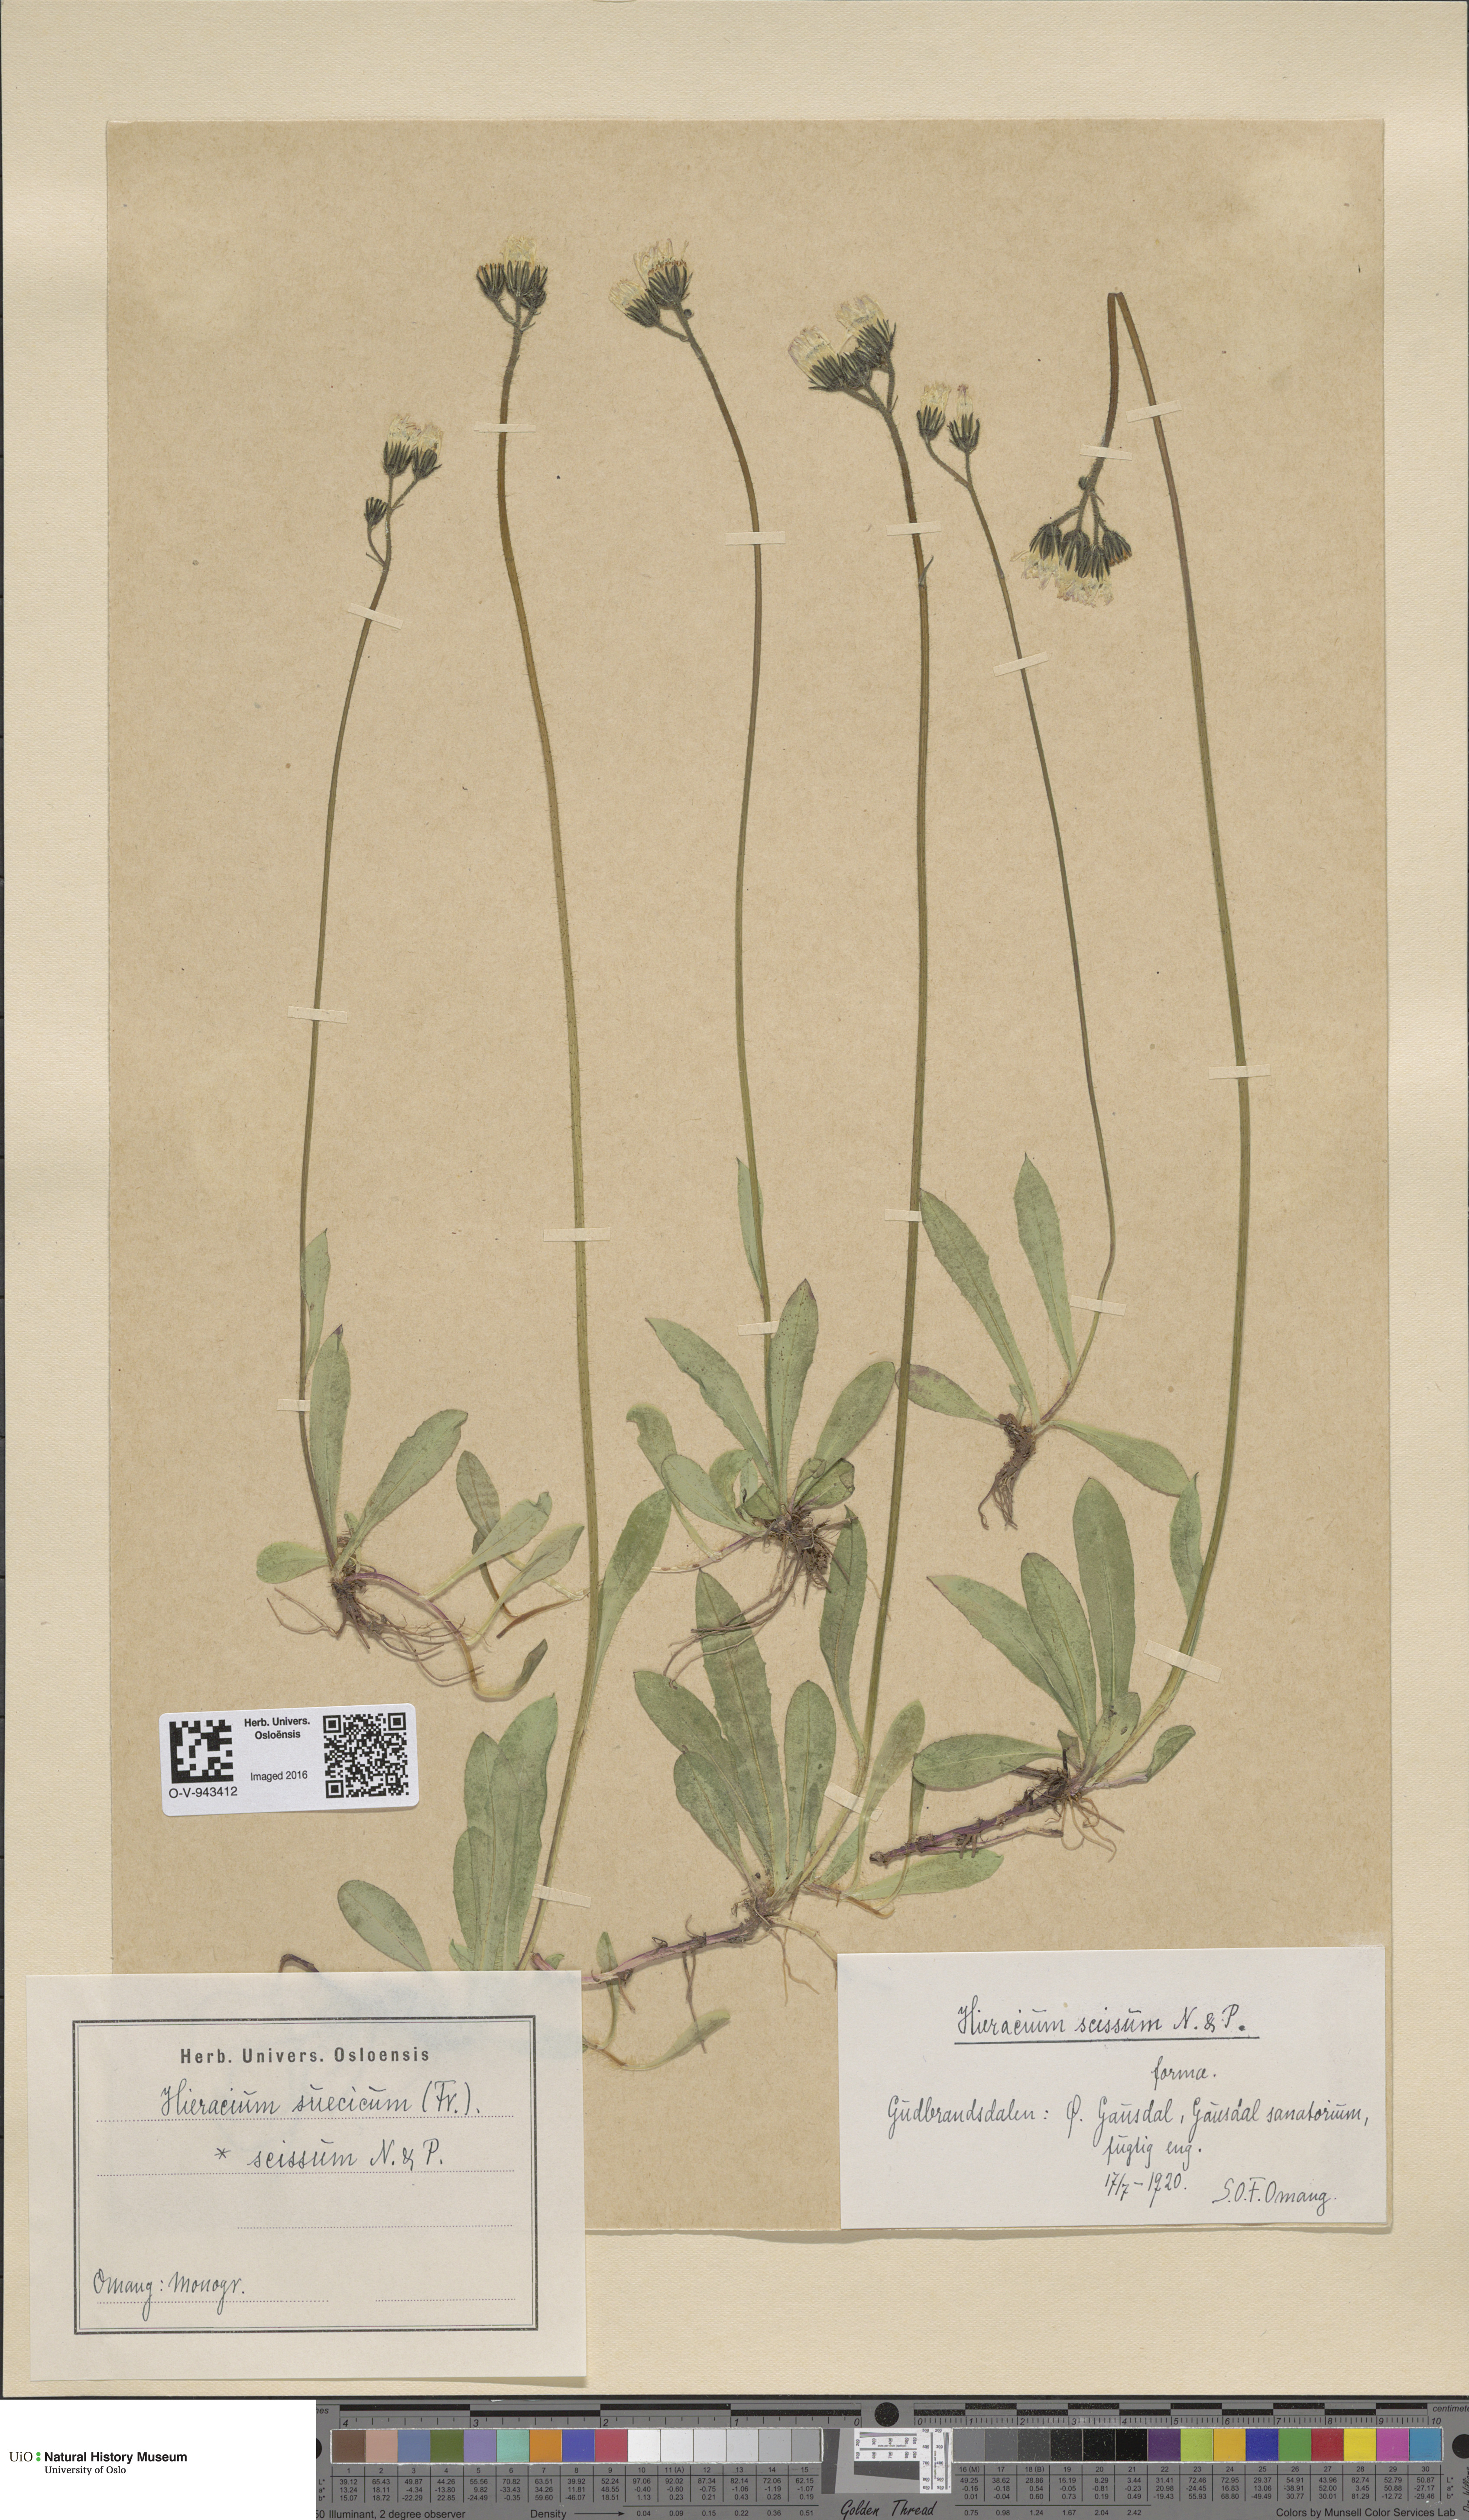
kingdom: Plantae
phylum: Tracheophyta
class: Magnoliopsida
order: Asterales
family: Asteraceae
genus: Pilosella
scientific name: Pilosella dubia
